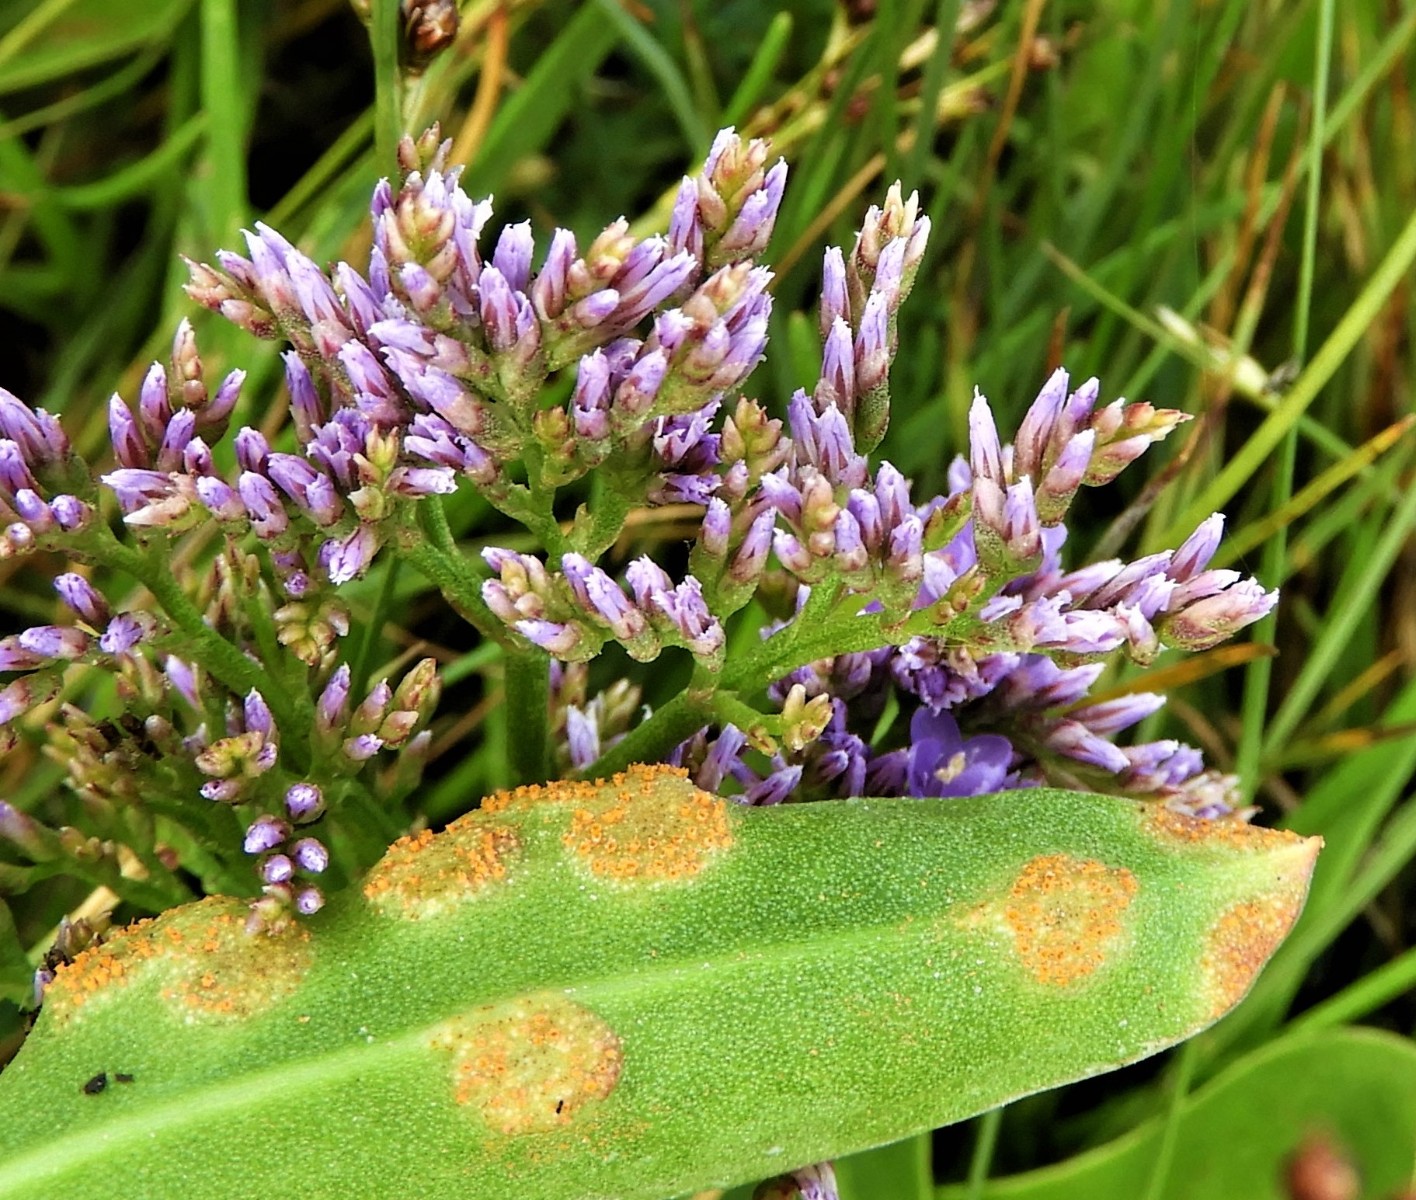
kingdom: Fungi
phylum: Basidiomycota
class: Pucciniomycetes
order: Pucciniales
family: Pucciniaceae
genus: Uromyces
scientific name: Uromyces limonii
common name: hindebæger-encellerust
